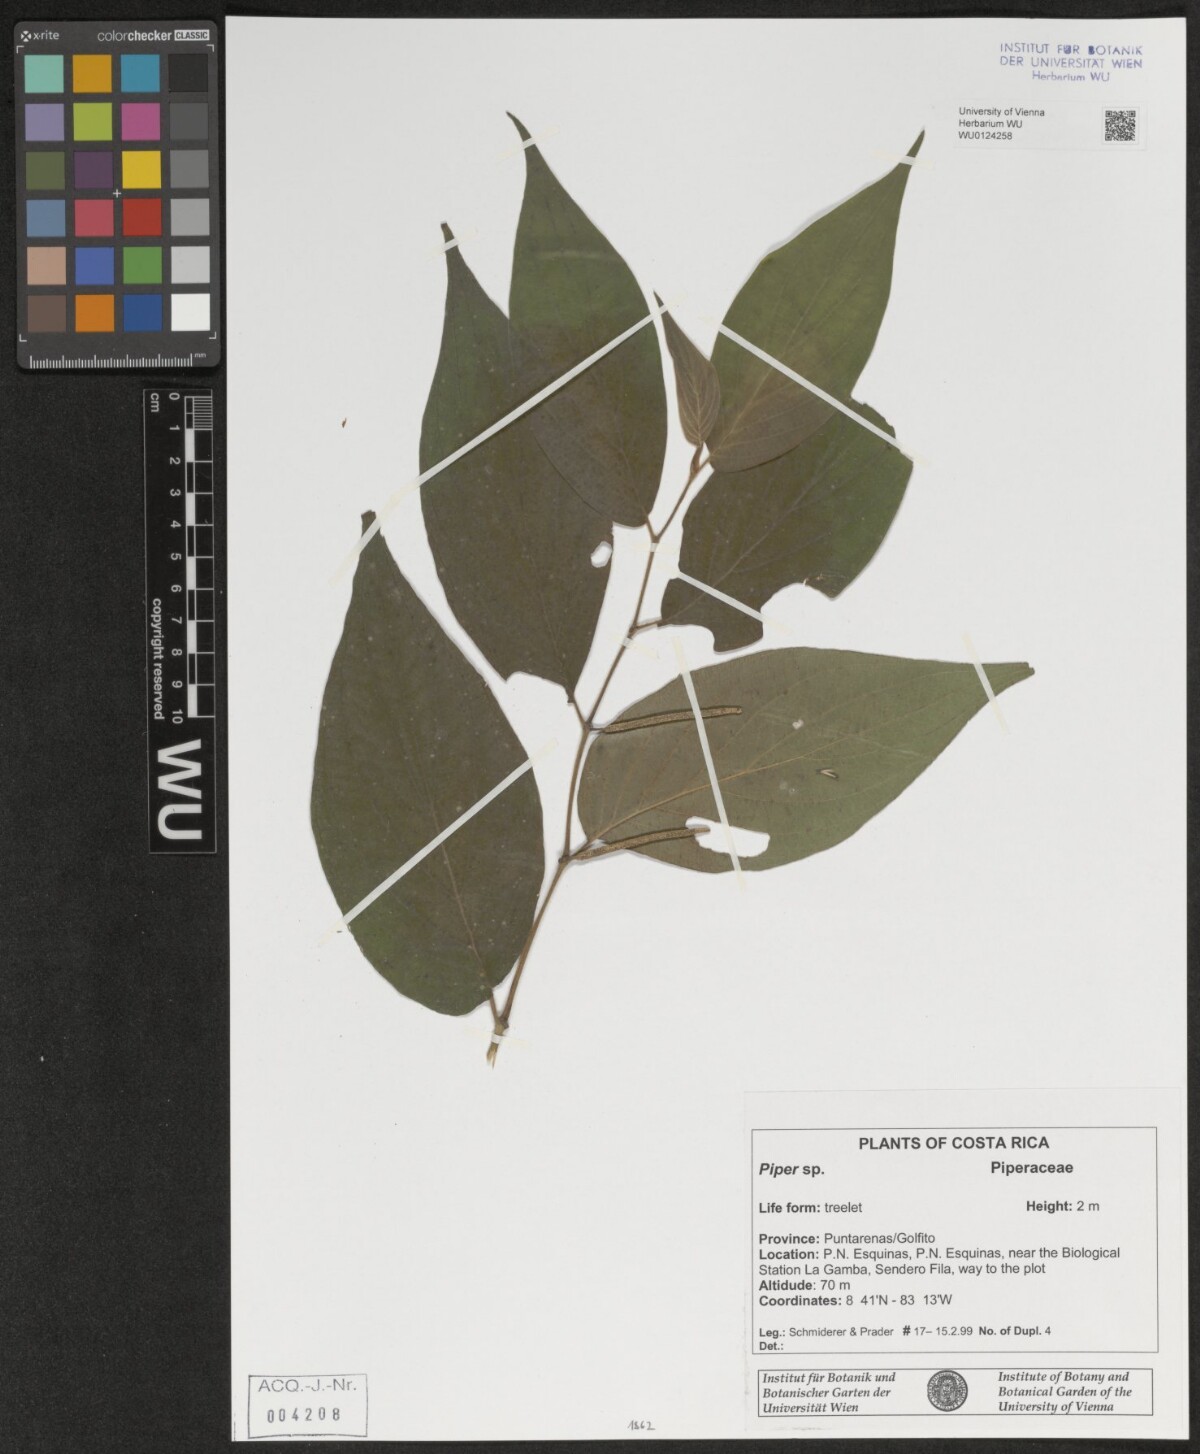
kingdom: Plantae
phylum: Tracheophyta
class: Magnoliopsida
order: Piperales
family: Piperaceae
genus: Piper
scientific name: Piper
